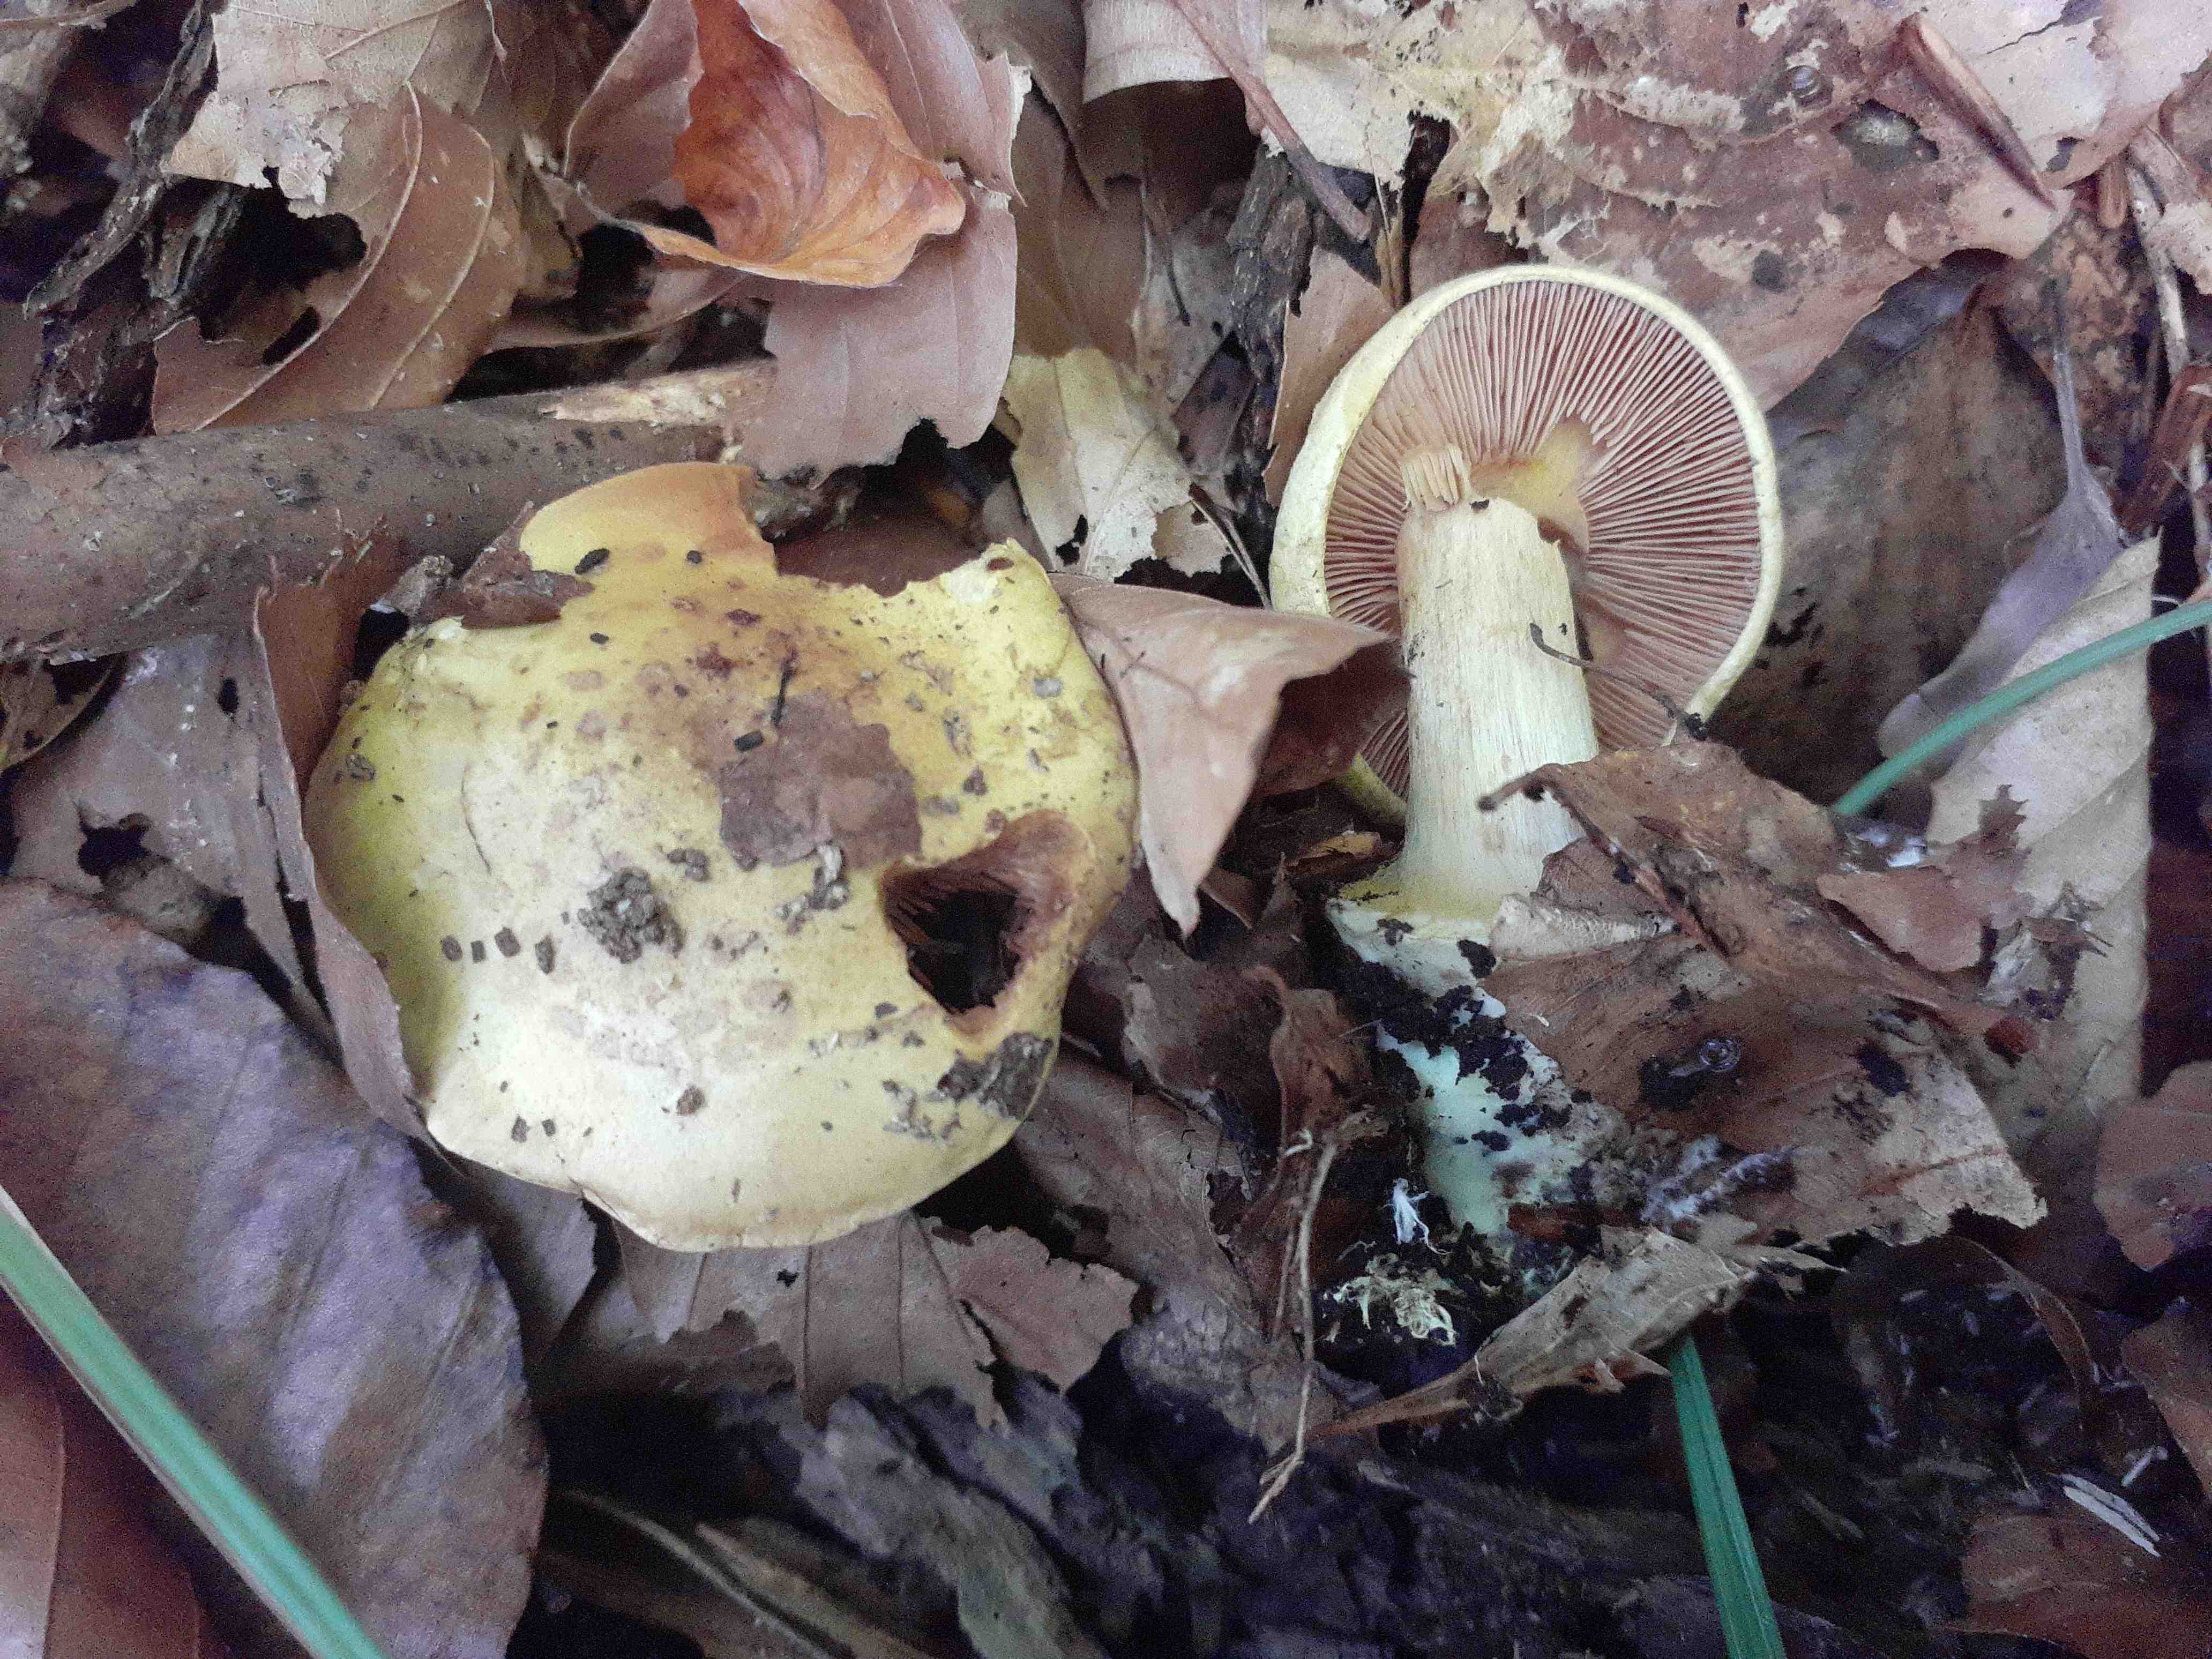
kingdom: Fungi
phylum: Basidiomycota
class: Agaricomycetes
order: Agaricales
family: Cortinariaceae
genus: Calonarius
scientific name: Calonarius fulvocitrinus
